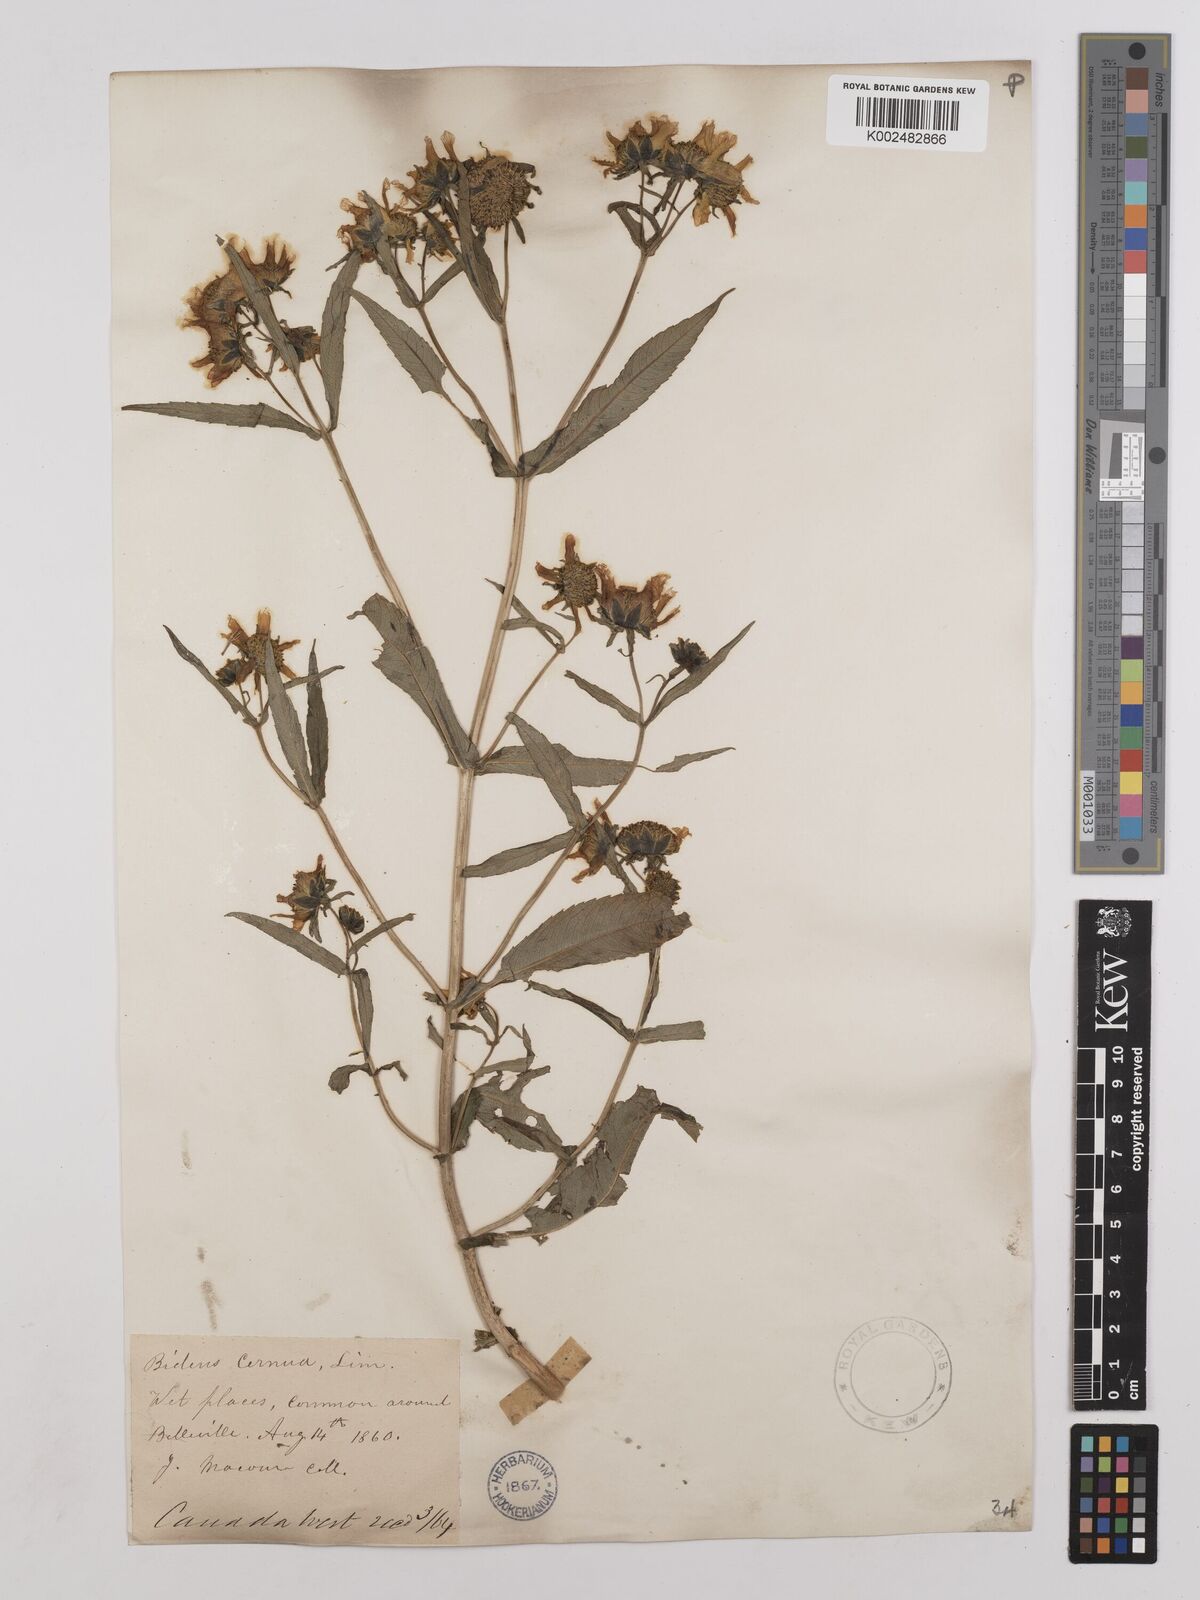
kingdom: Plantae
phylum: Tracheophyta
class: Magnoliopsida
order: Asterales
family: Asteraceae
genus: Bidens
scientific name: Bidens
